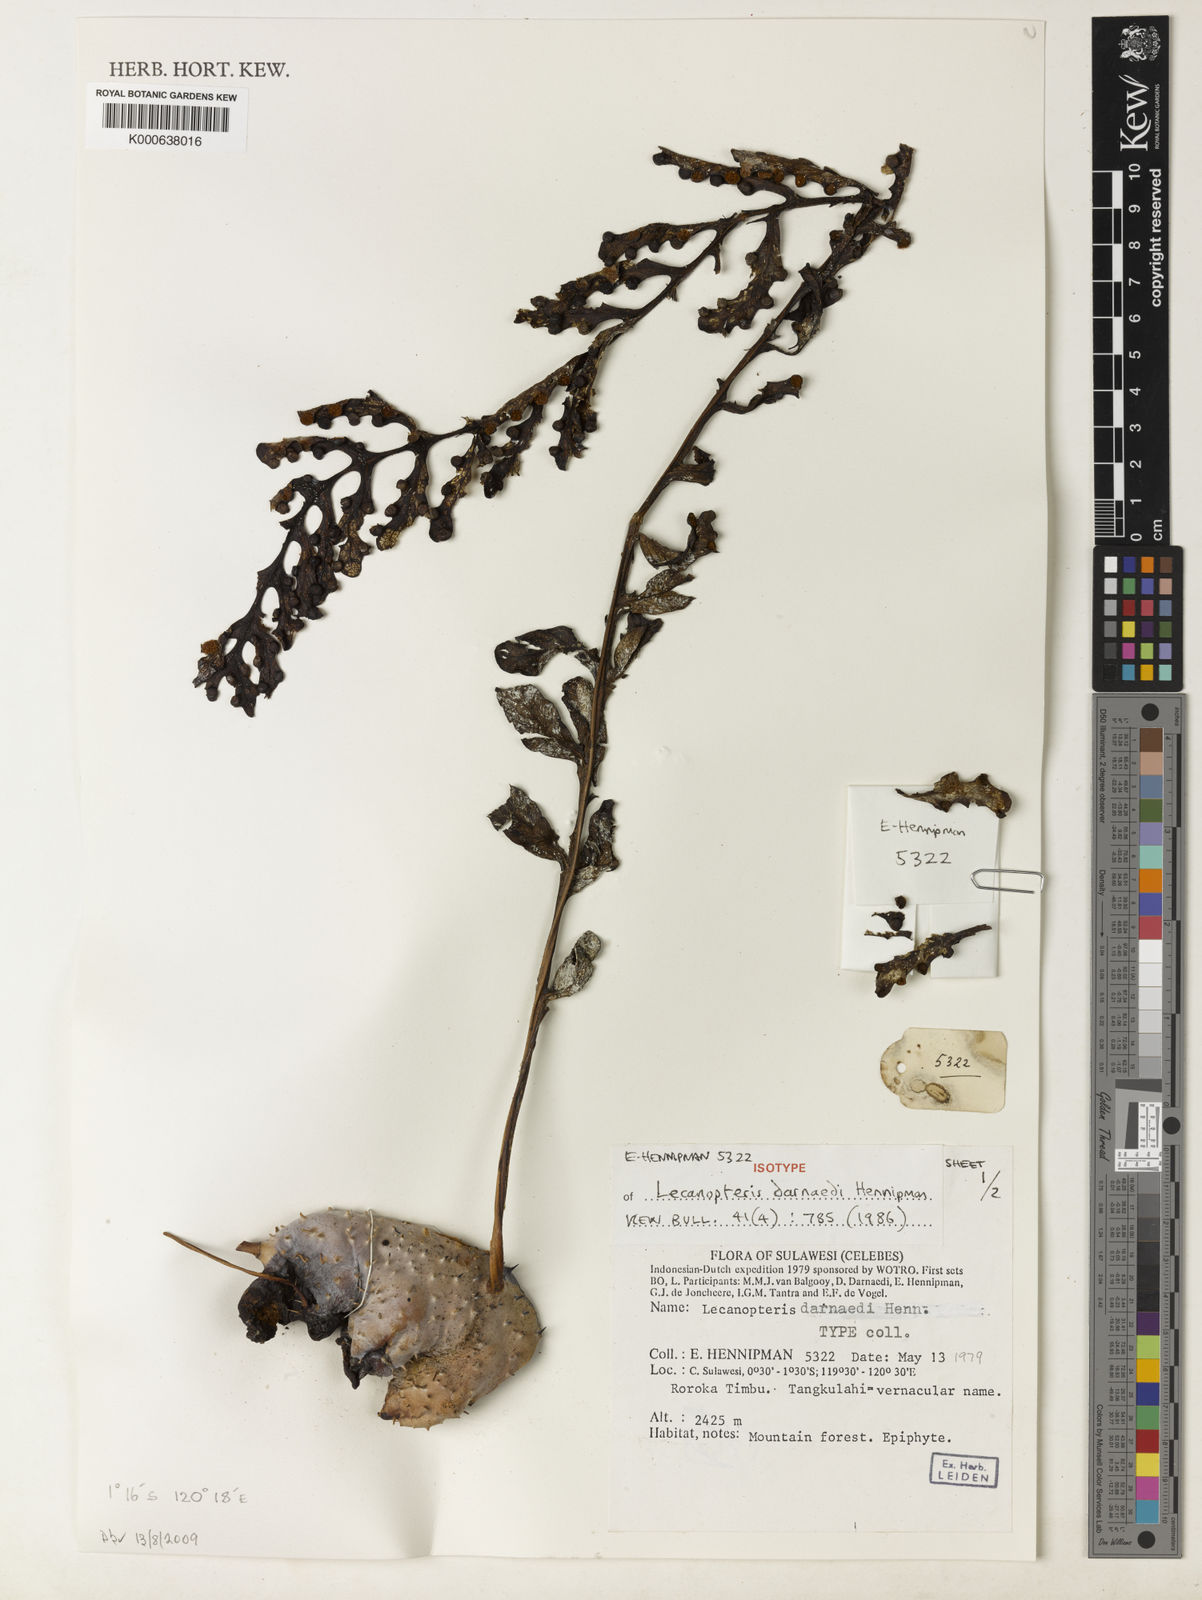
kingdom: Plantae
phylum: Tracheophyta
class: Polypodiopsida
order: Polypodiales
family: Polypodiaceae
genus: Lecanopteris
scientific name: Lecanopteris darnaedii
